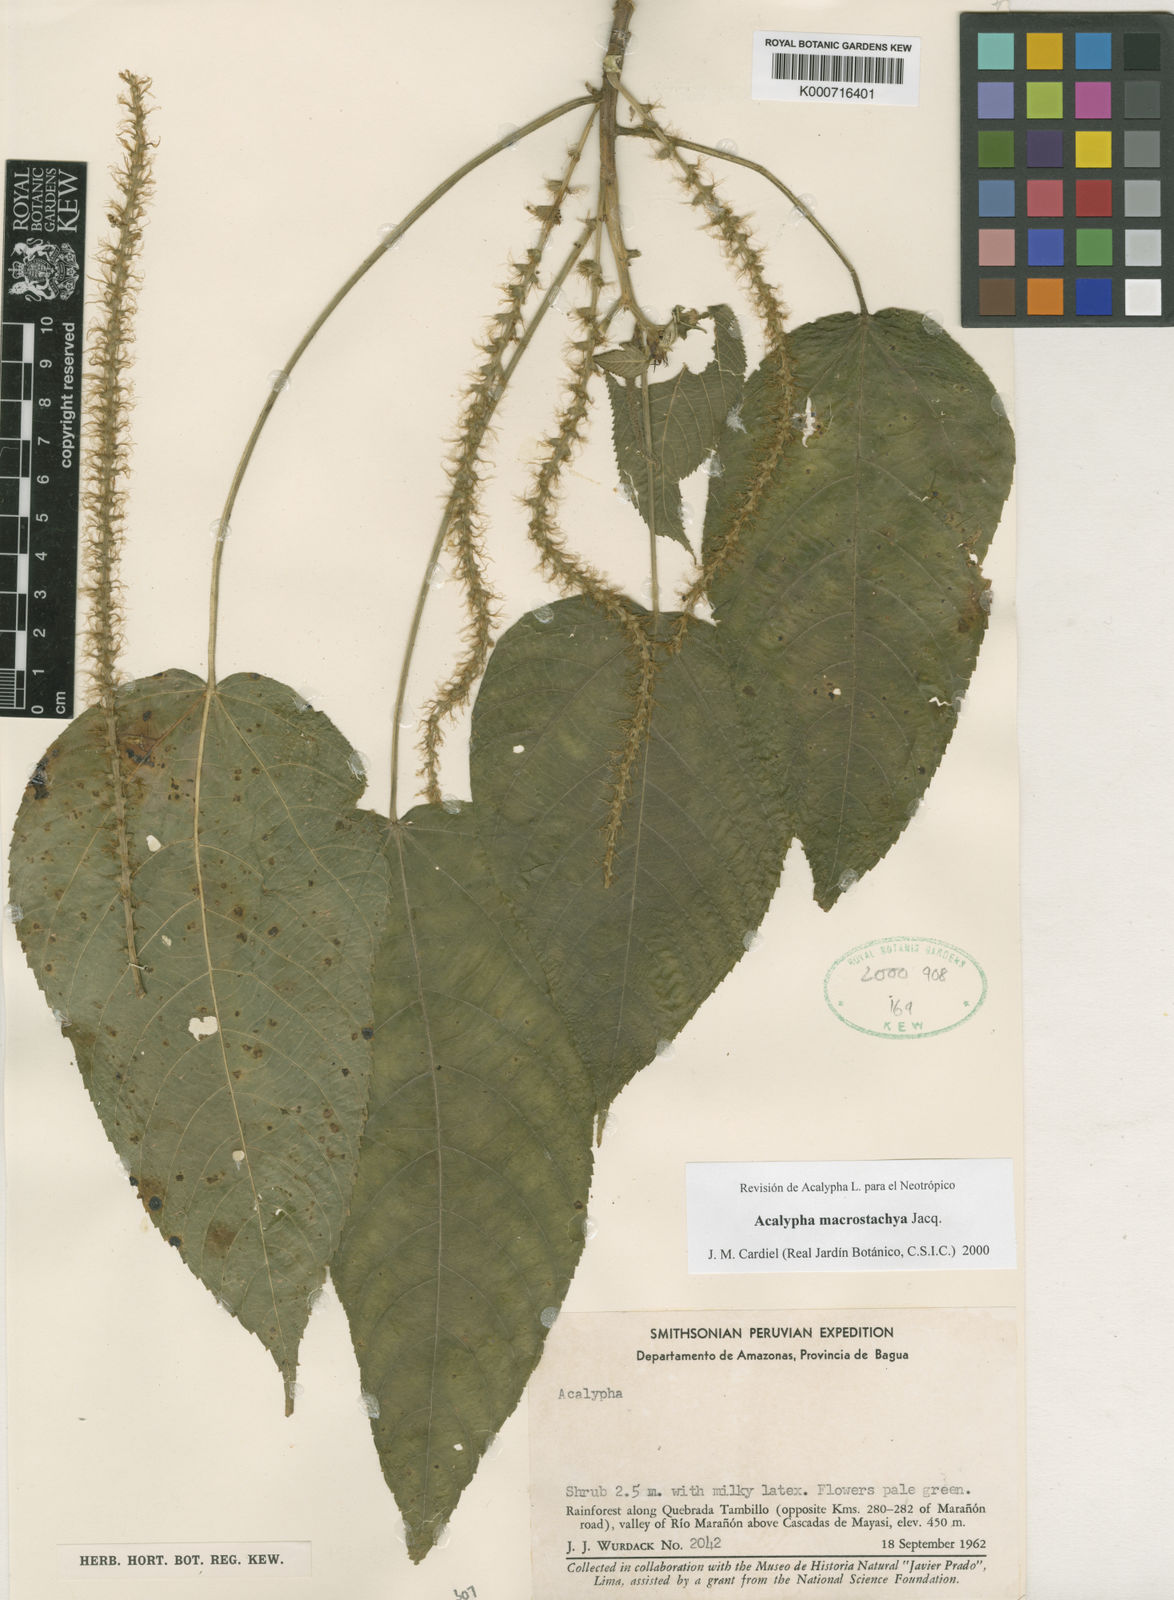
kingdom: Plantae
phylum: Tracheophyta
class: Magnoliopsida
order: Malpighiales
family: Euphorbiaceae
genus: Acalypha
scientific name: Acalypha macrostachya
